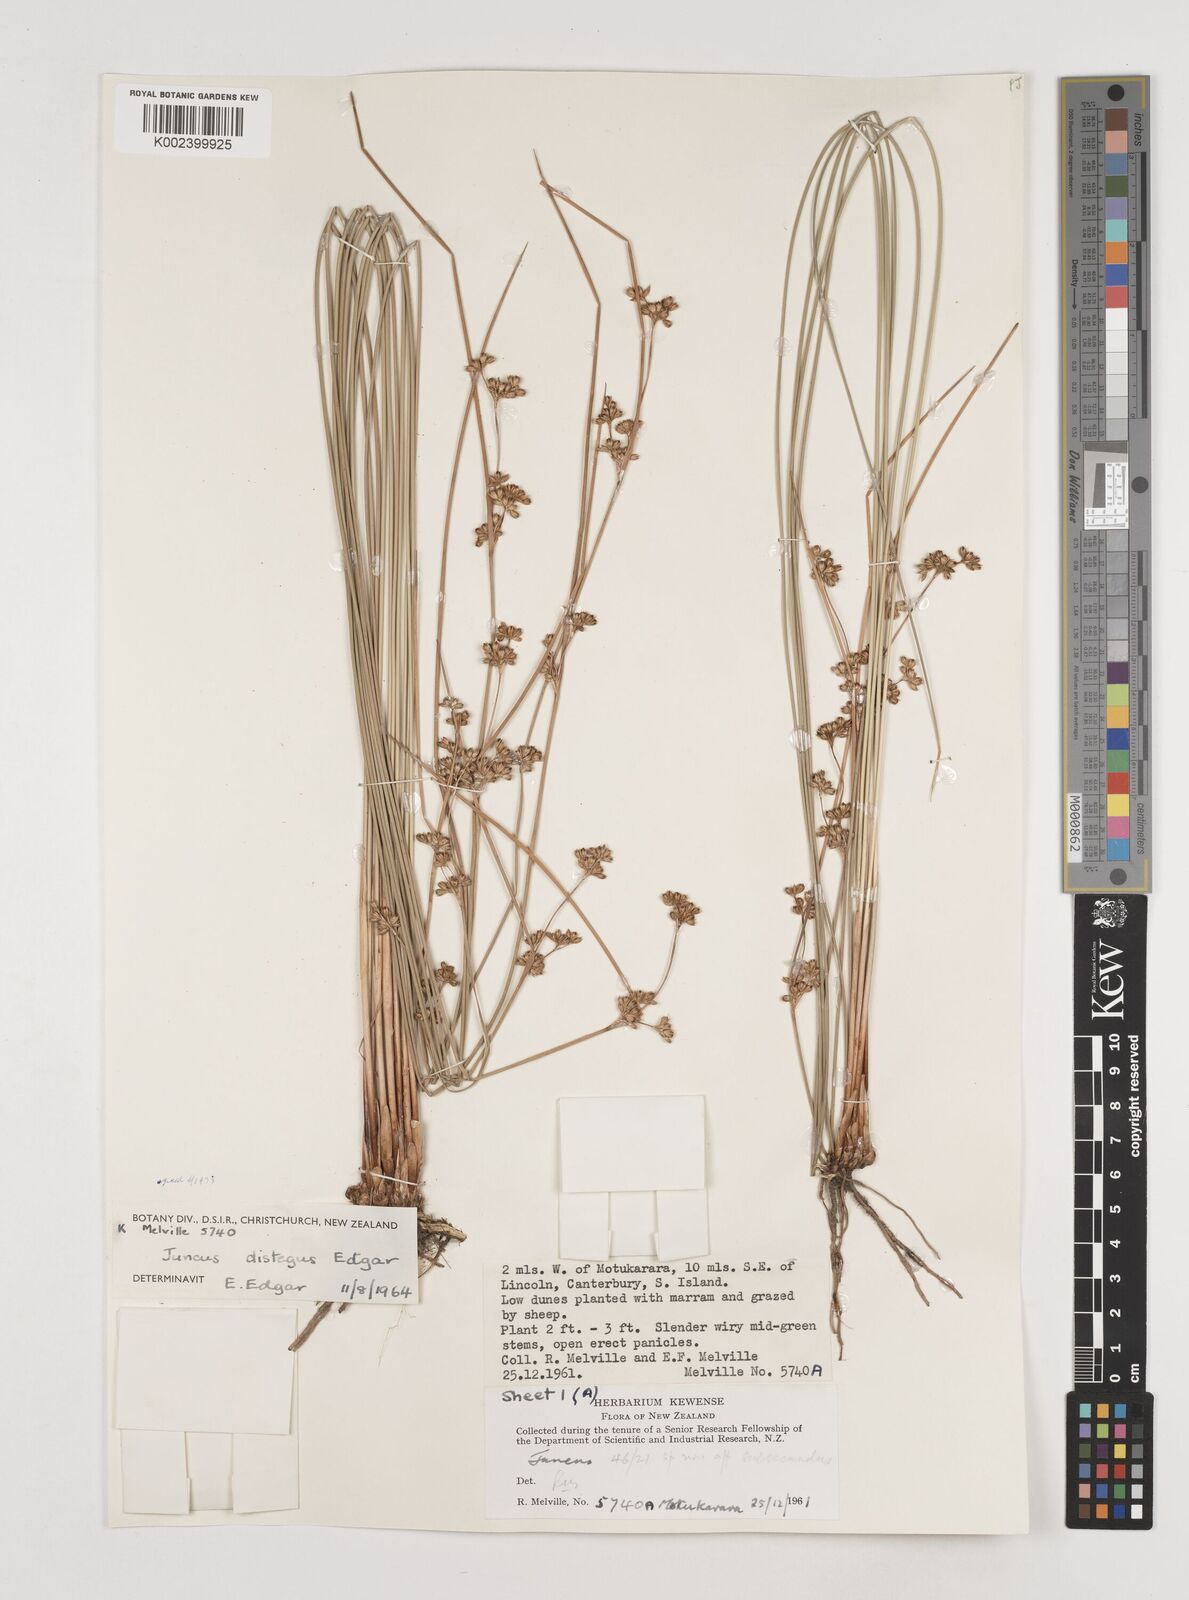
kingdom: Plantae
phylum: Tracheophyta
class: Liliopsida
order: Poales
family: Juncaceae
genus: Juncus
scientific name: Juncus distegus
